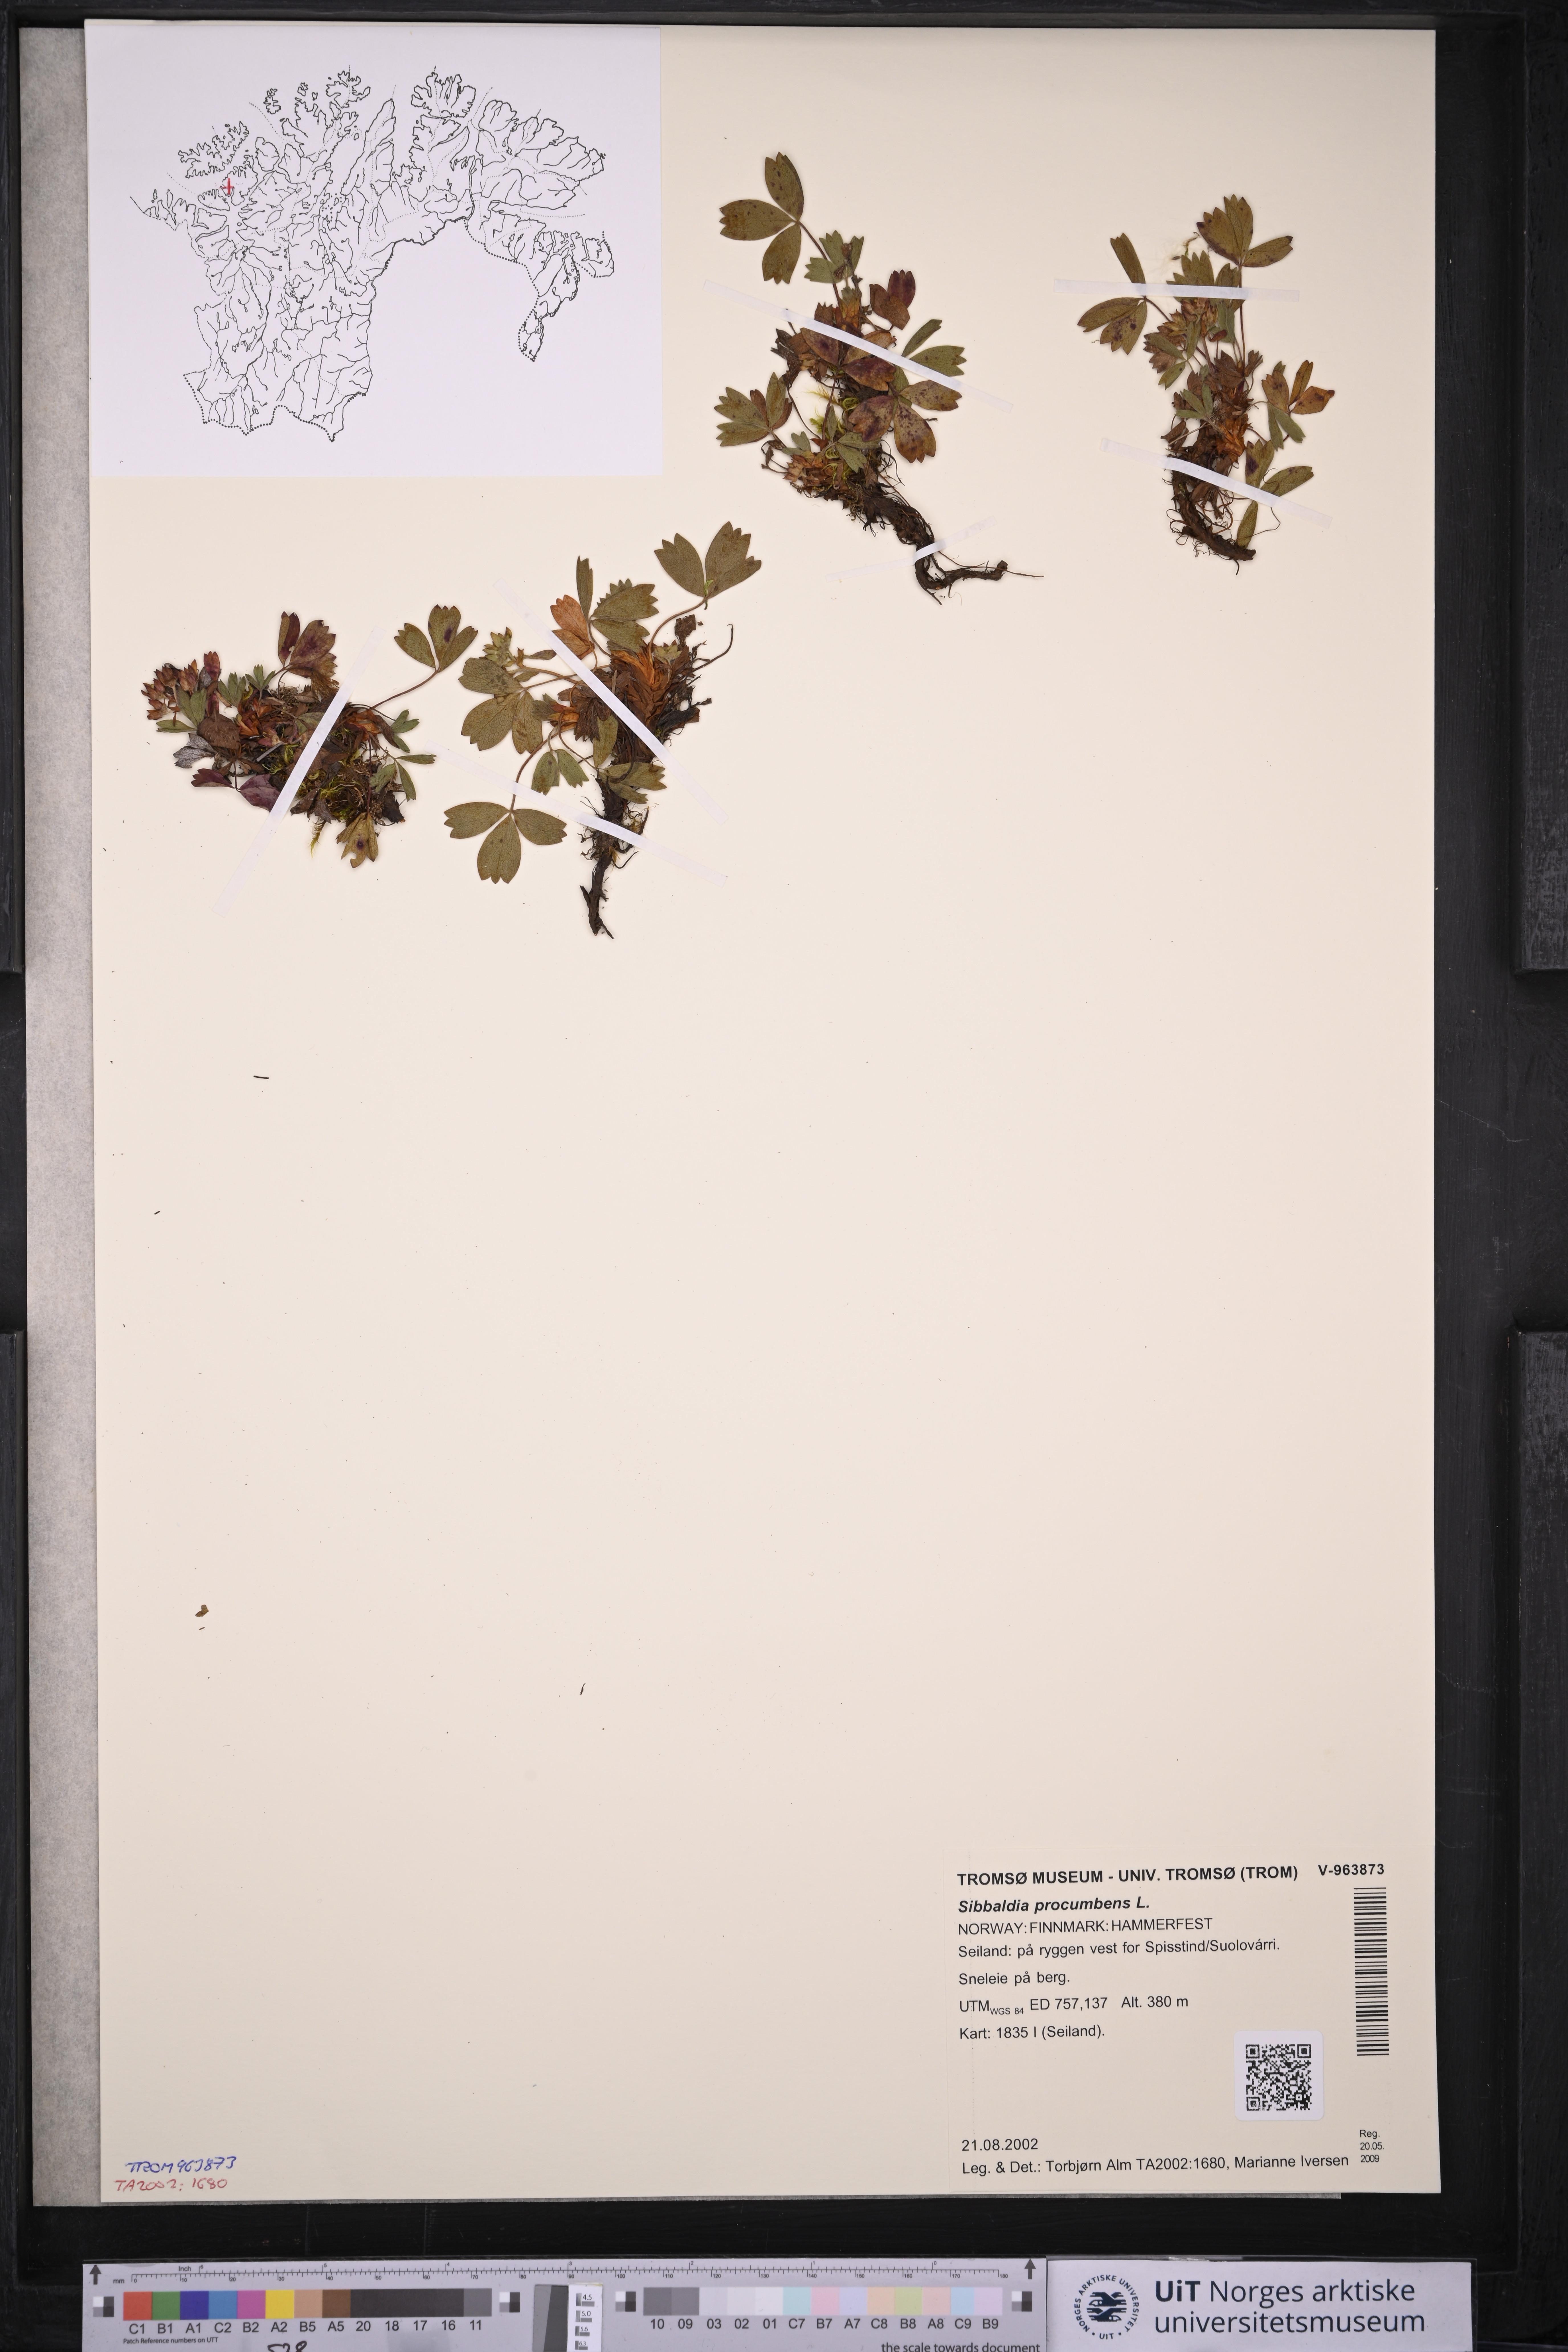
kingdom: Plantae
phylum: Tracheophyta
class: Magnoliopsida
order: Rosales
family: Rosaceae
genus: Sibbaldia
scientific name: Sibbaldia procumbens
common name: Creeping sibbaldia
